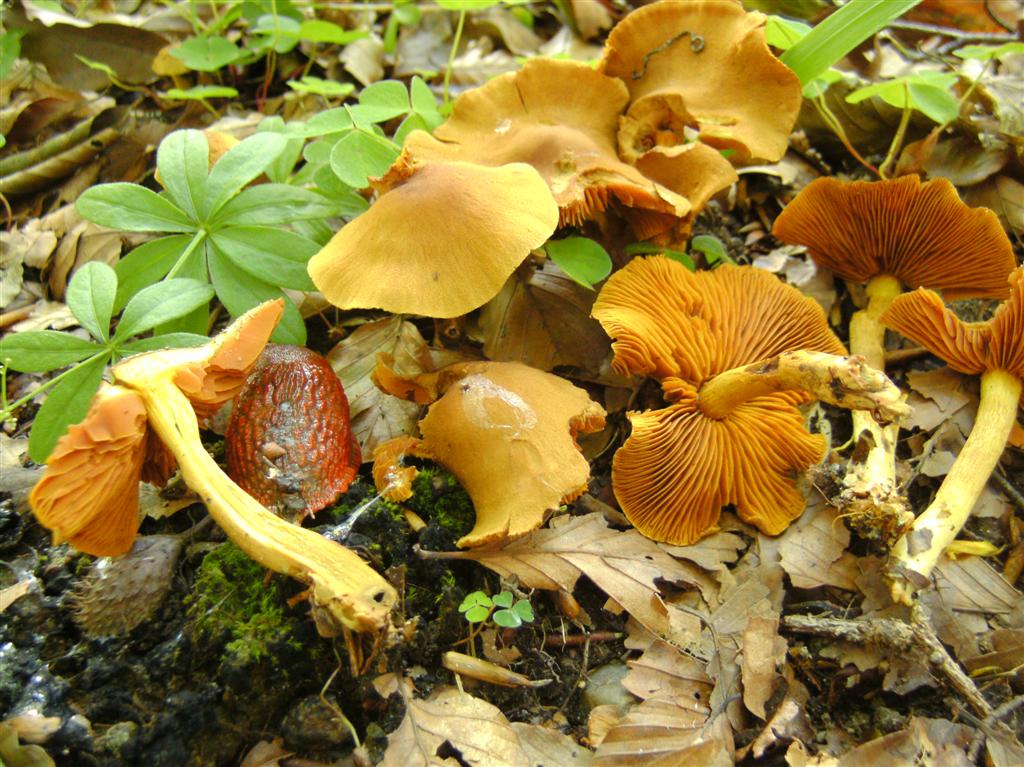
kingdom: Fungi
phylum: Basidiomycota
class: Agaricomycetes
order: Agaricales
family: Cortinariaceae
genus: Cortinarius
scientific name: Cortinarius cinnamomeus
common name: kanel-slørhat
